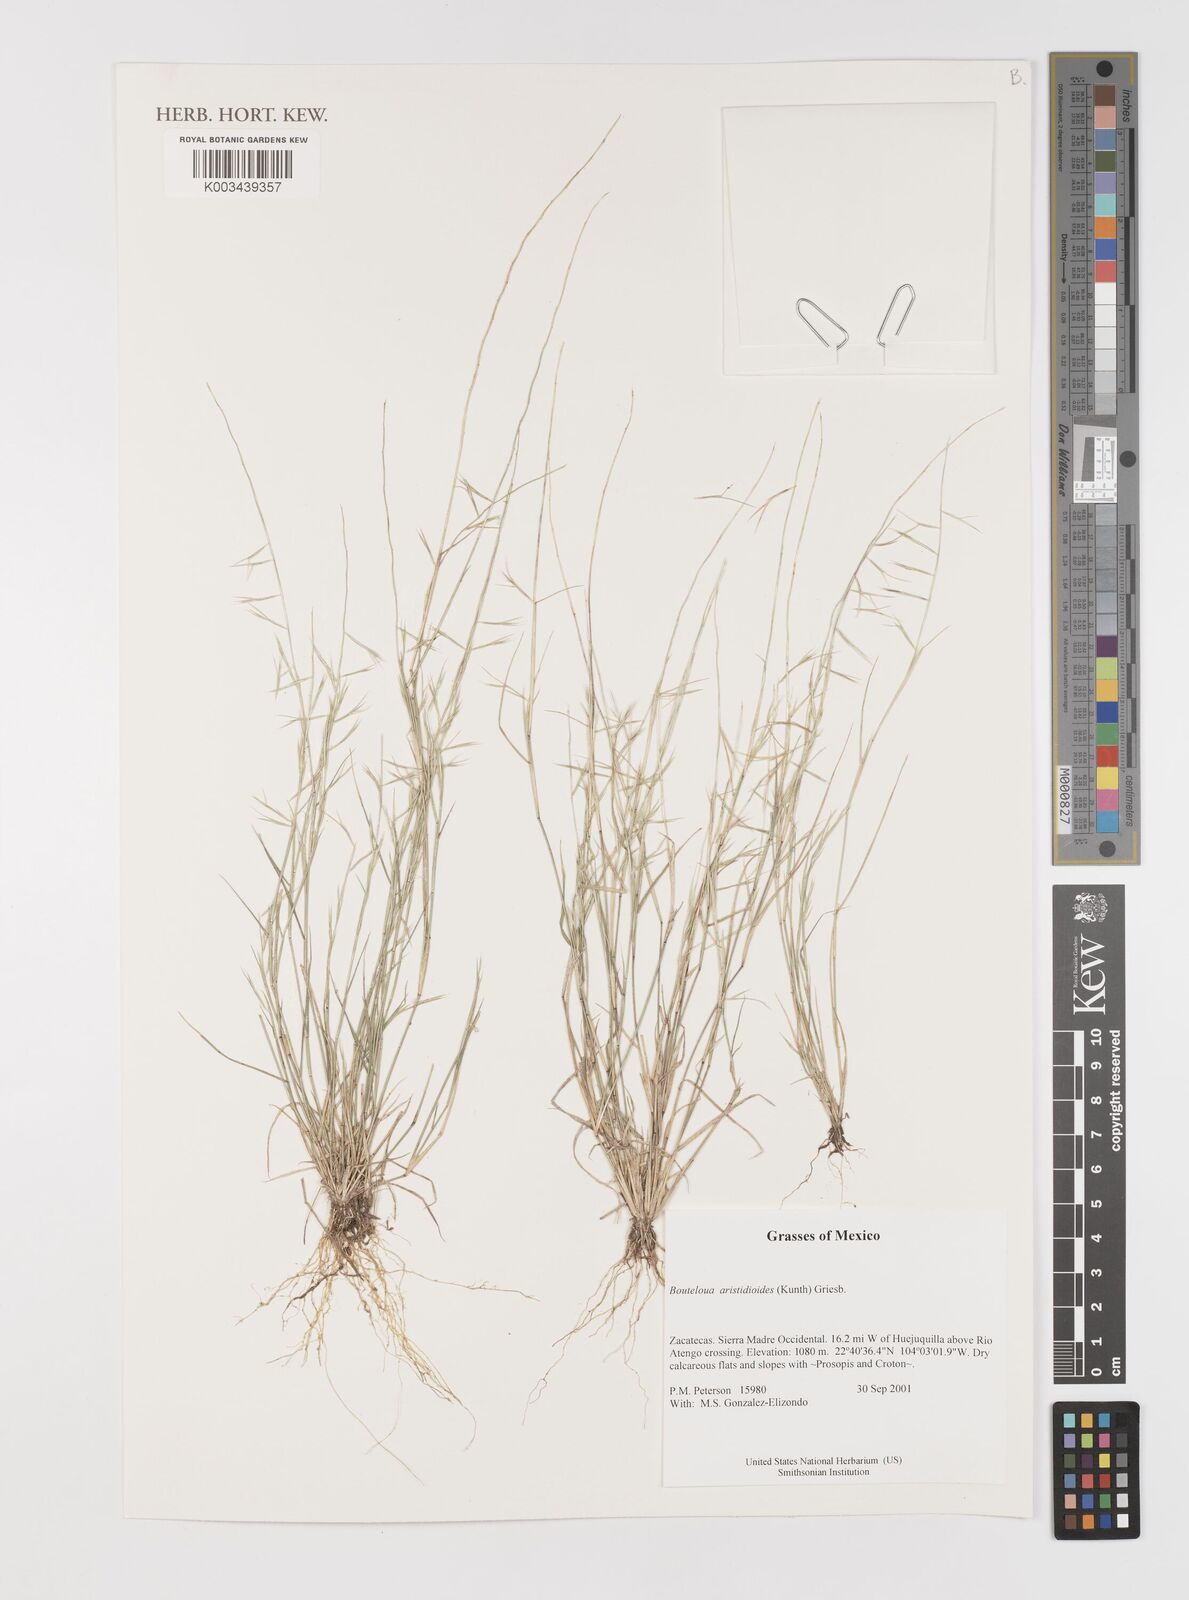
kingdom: Plantae
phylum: Tracheophyta
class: Liliopsida
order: Poales
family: Poaceae
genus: Bouteloua
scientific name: Bouteloua aristidoides
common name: Needle grama
